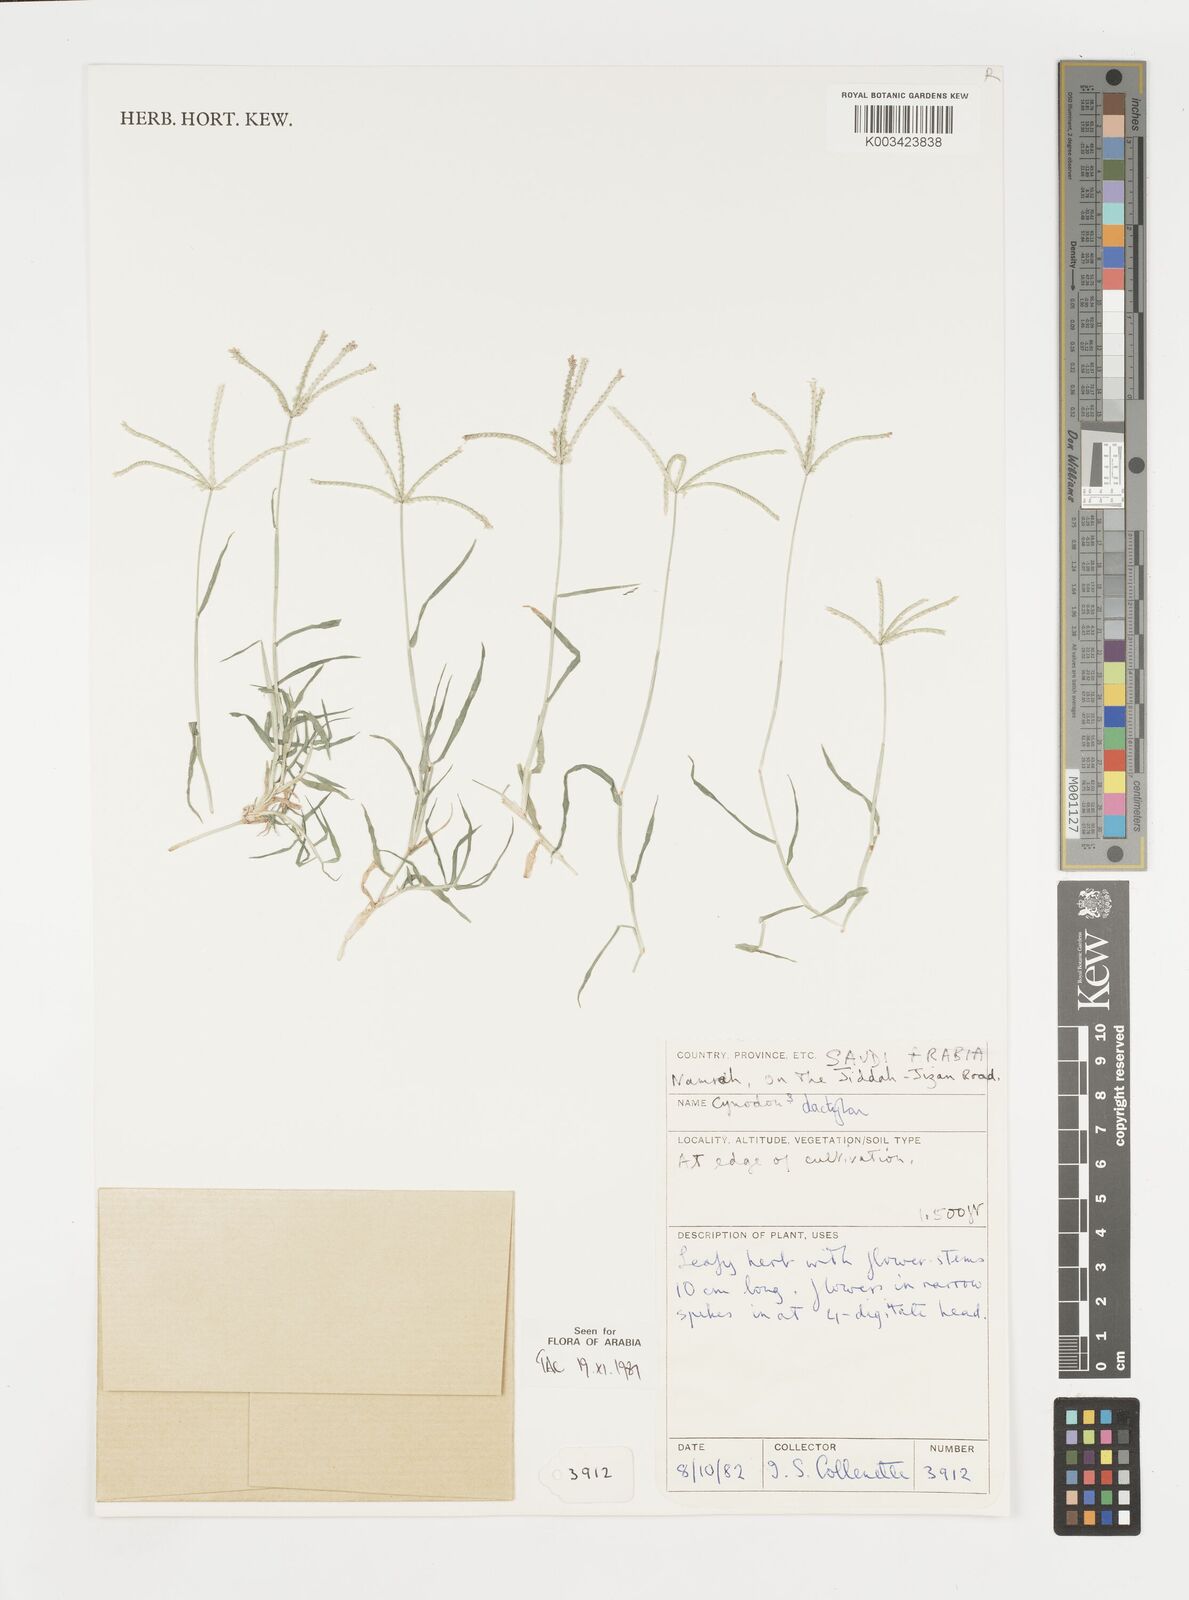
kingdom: Plantae
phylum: Tracheophyta
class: Liliopsida
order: Poales
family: Poaceae
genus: Cynodon
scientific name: Cynodon dactylon
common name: Bermuda grass
